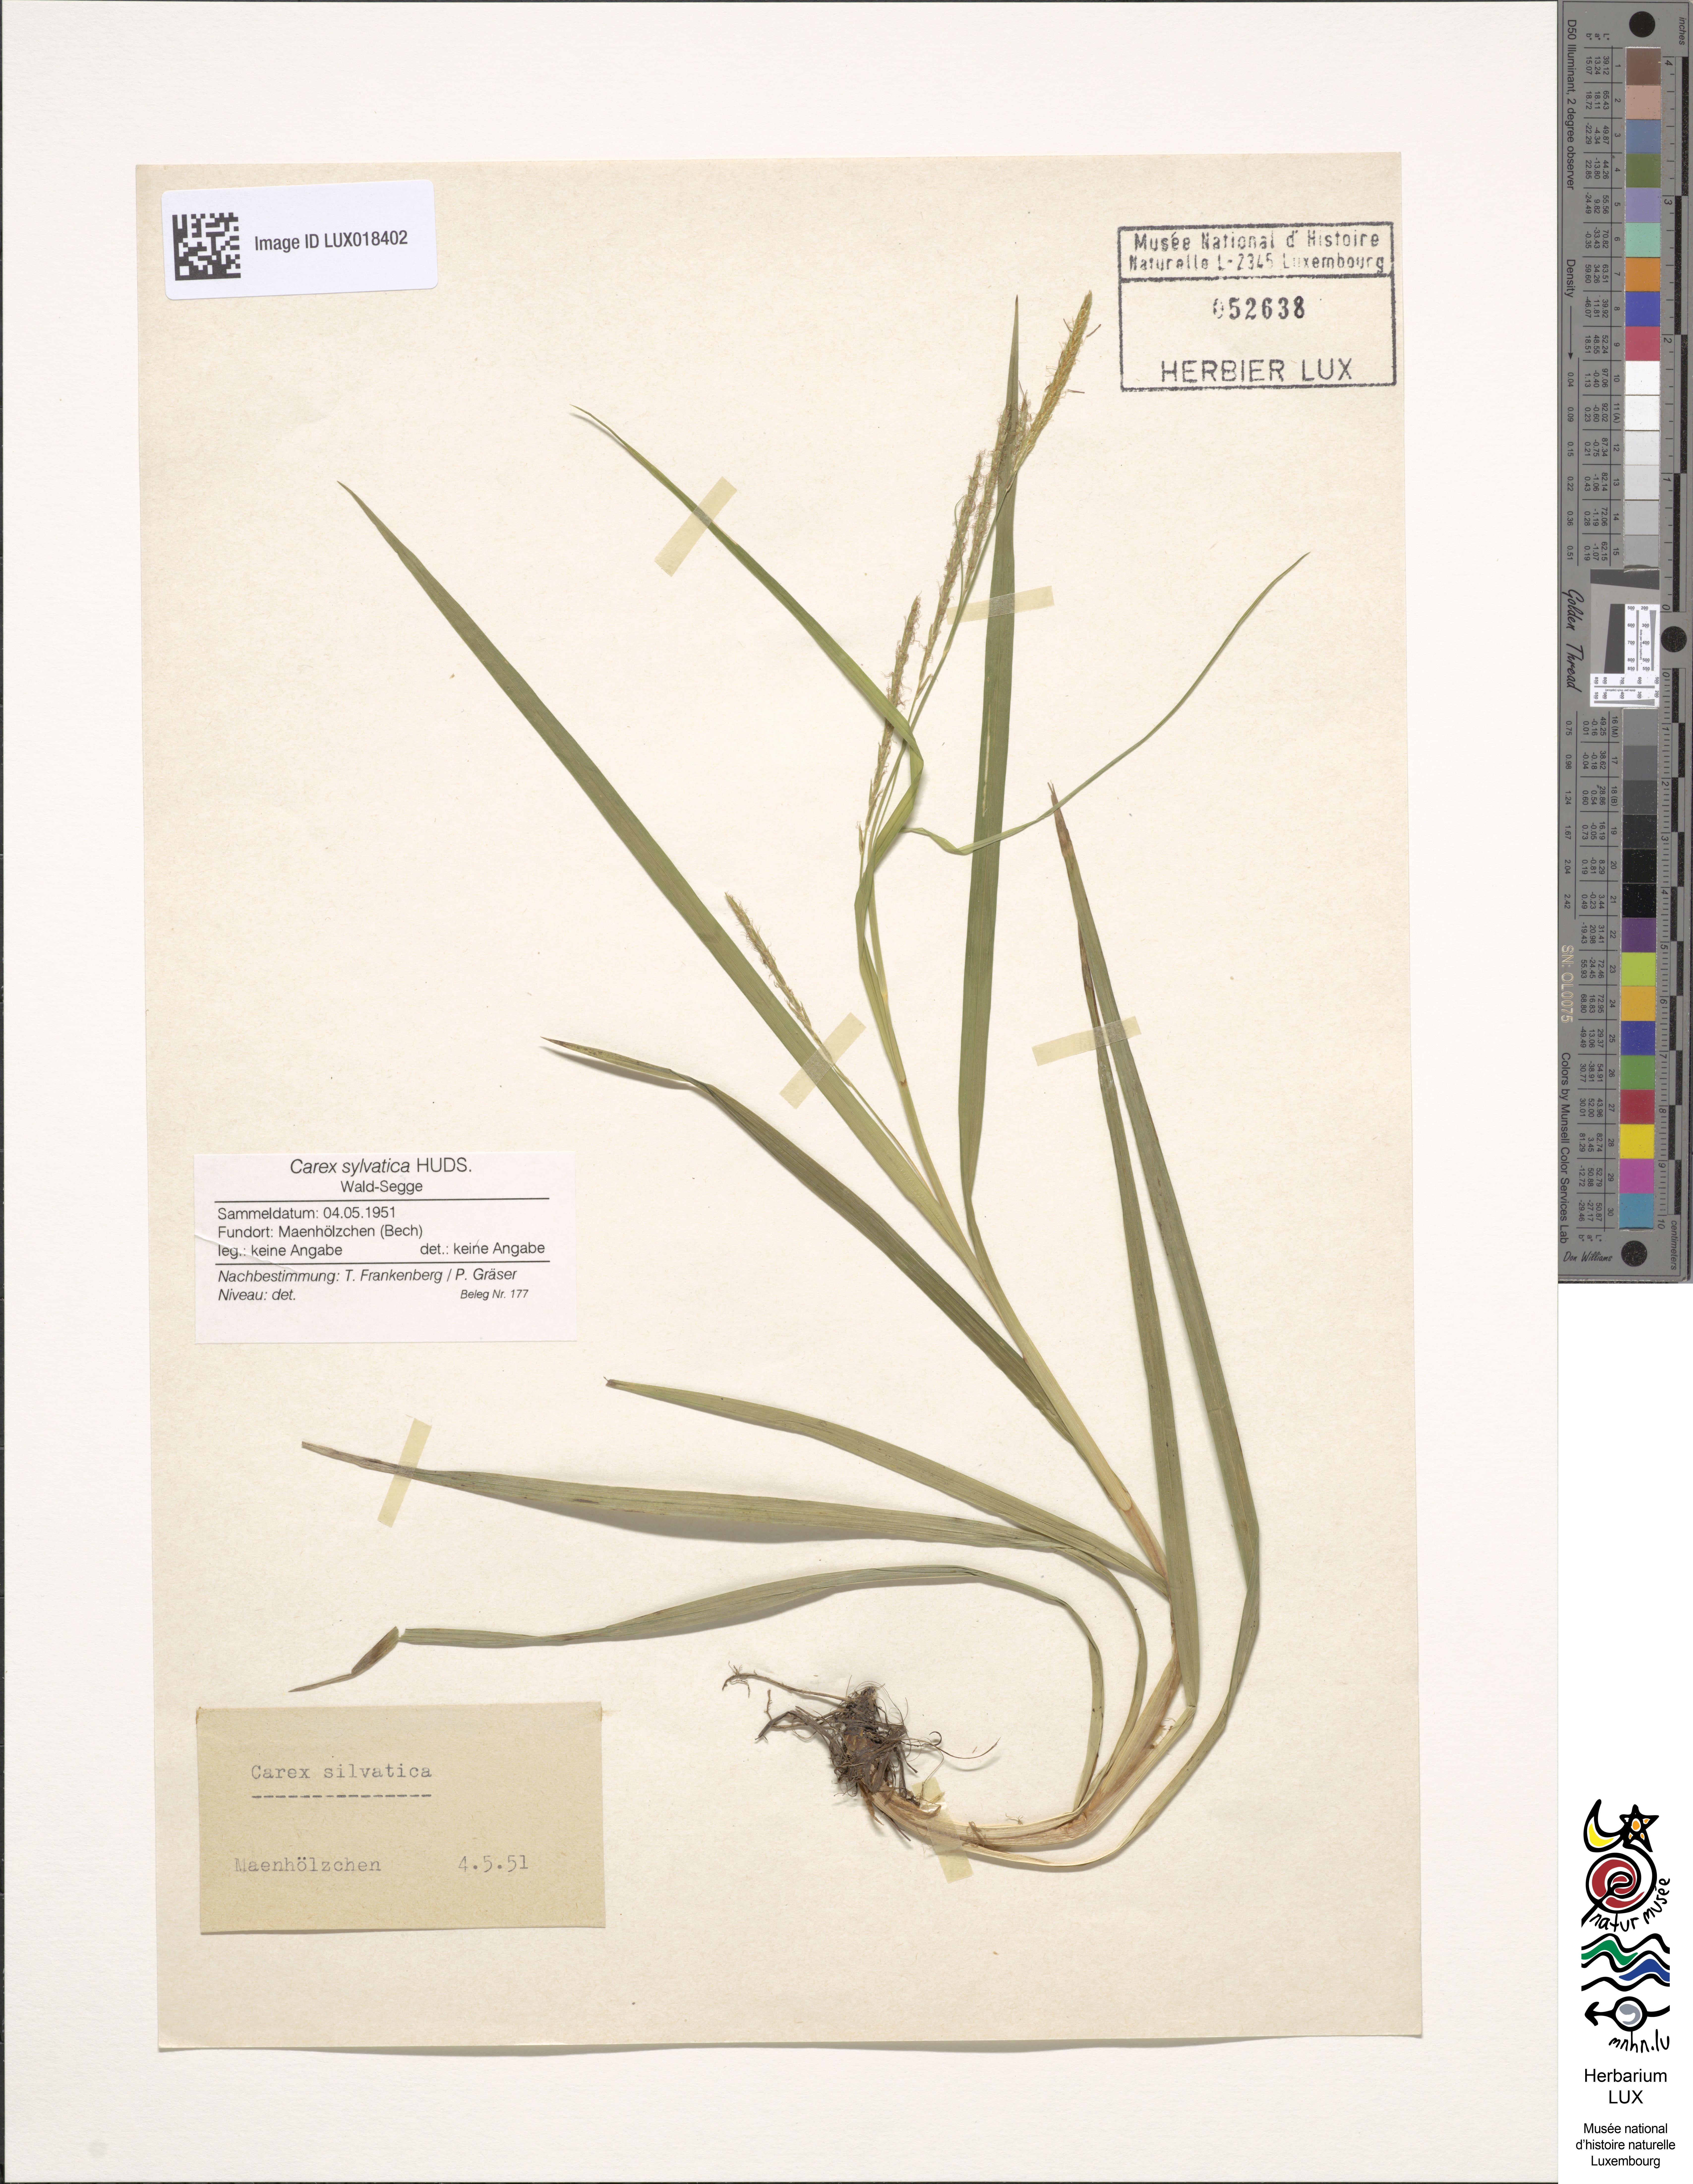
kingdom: Plantae
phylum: Tracheophyta
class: Liliopsida
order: Poales
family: Cyperaceae
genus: Carex
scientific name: Carex sylvatica
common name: Wood-sedge
